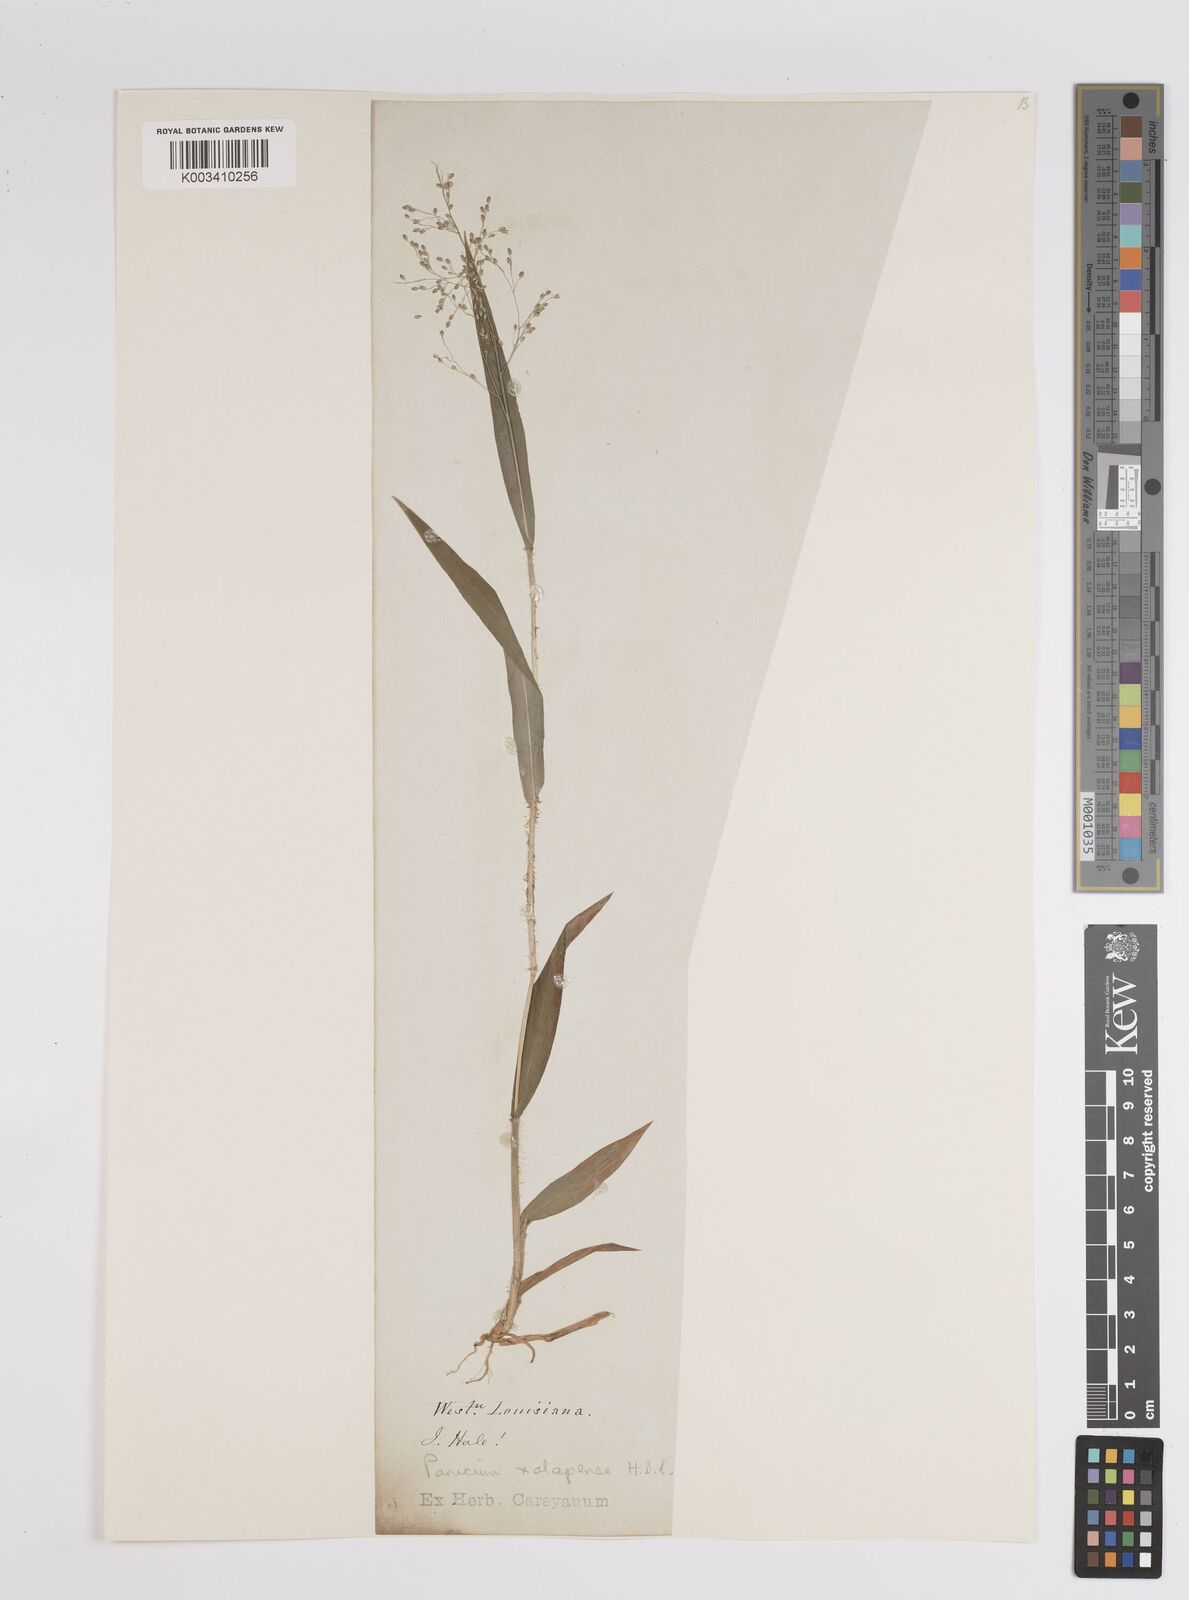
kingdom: Plantae
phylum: Tracheophyta
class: Liliopsida
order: Poales
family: Poaceae
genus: Dichanthelium
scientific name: Dichanthelium laxiflorum
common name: Soft-tuft panic grass
